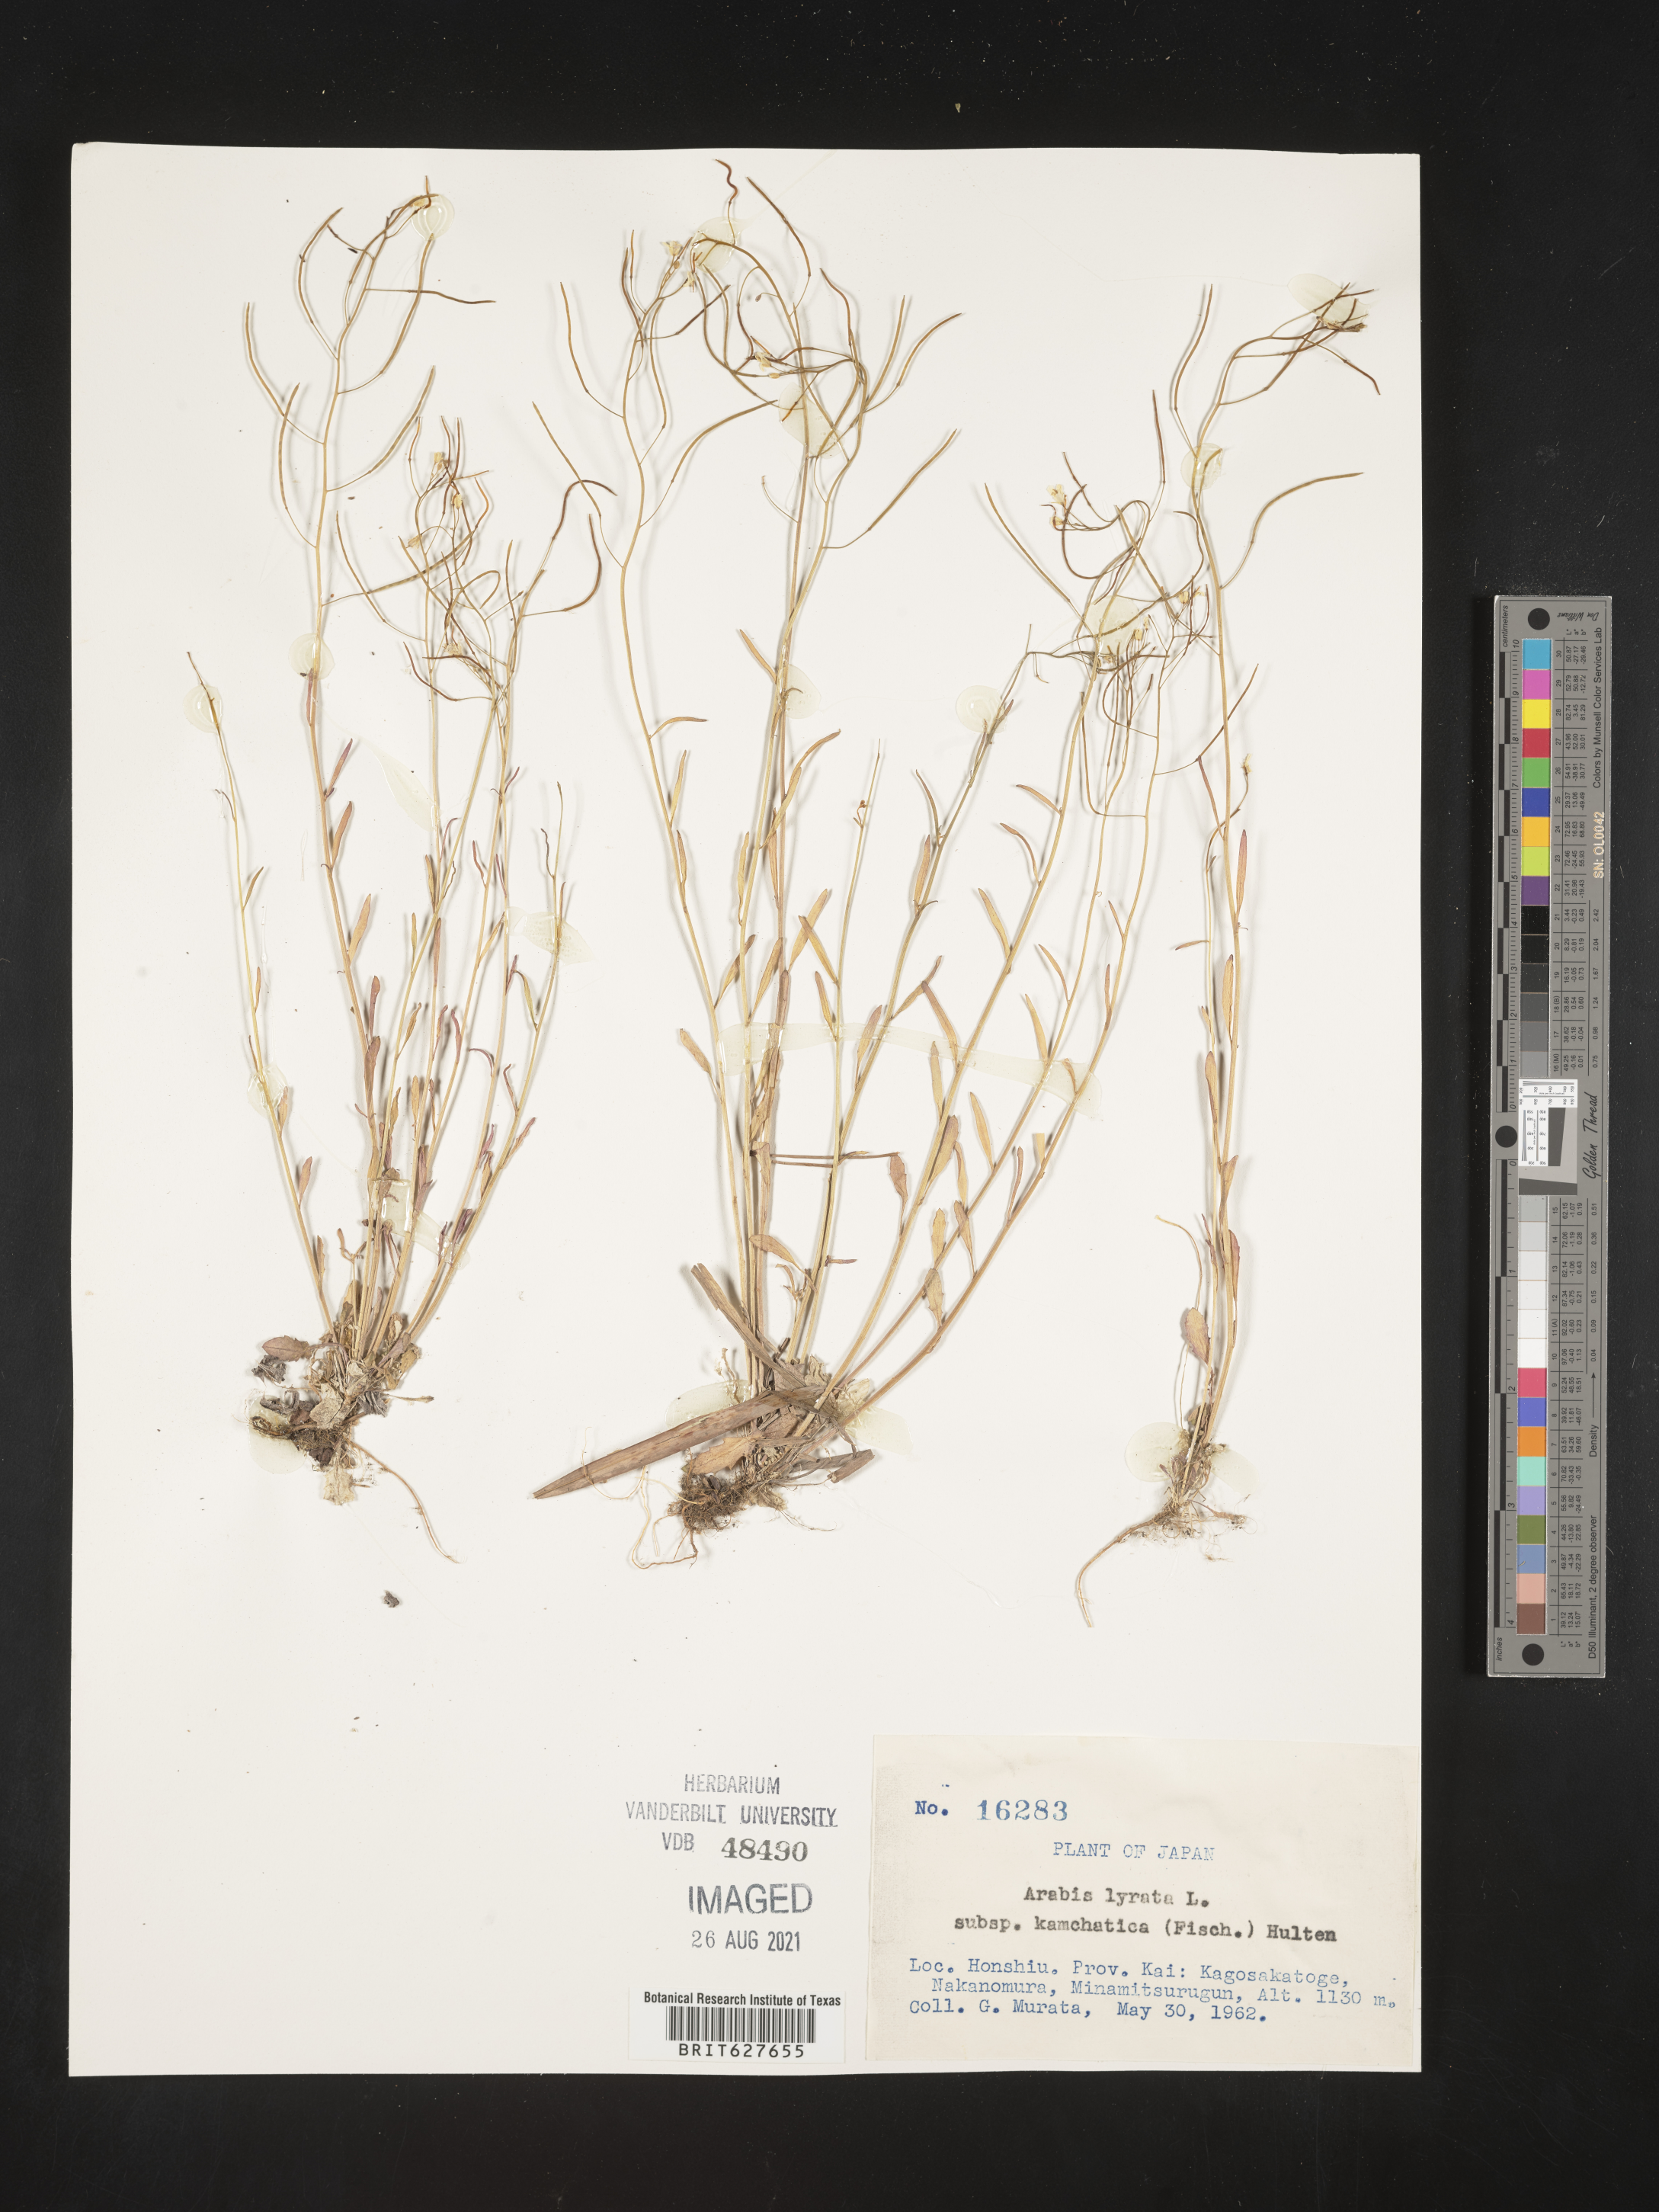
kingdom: Plantae
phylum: Tracheophyta
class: Magnoliopsida
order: Brassicales
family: Brassicaceae
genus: Arabidopsis
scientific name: Arabidopsis lyrata
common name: Lyrate rockcress
